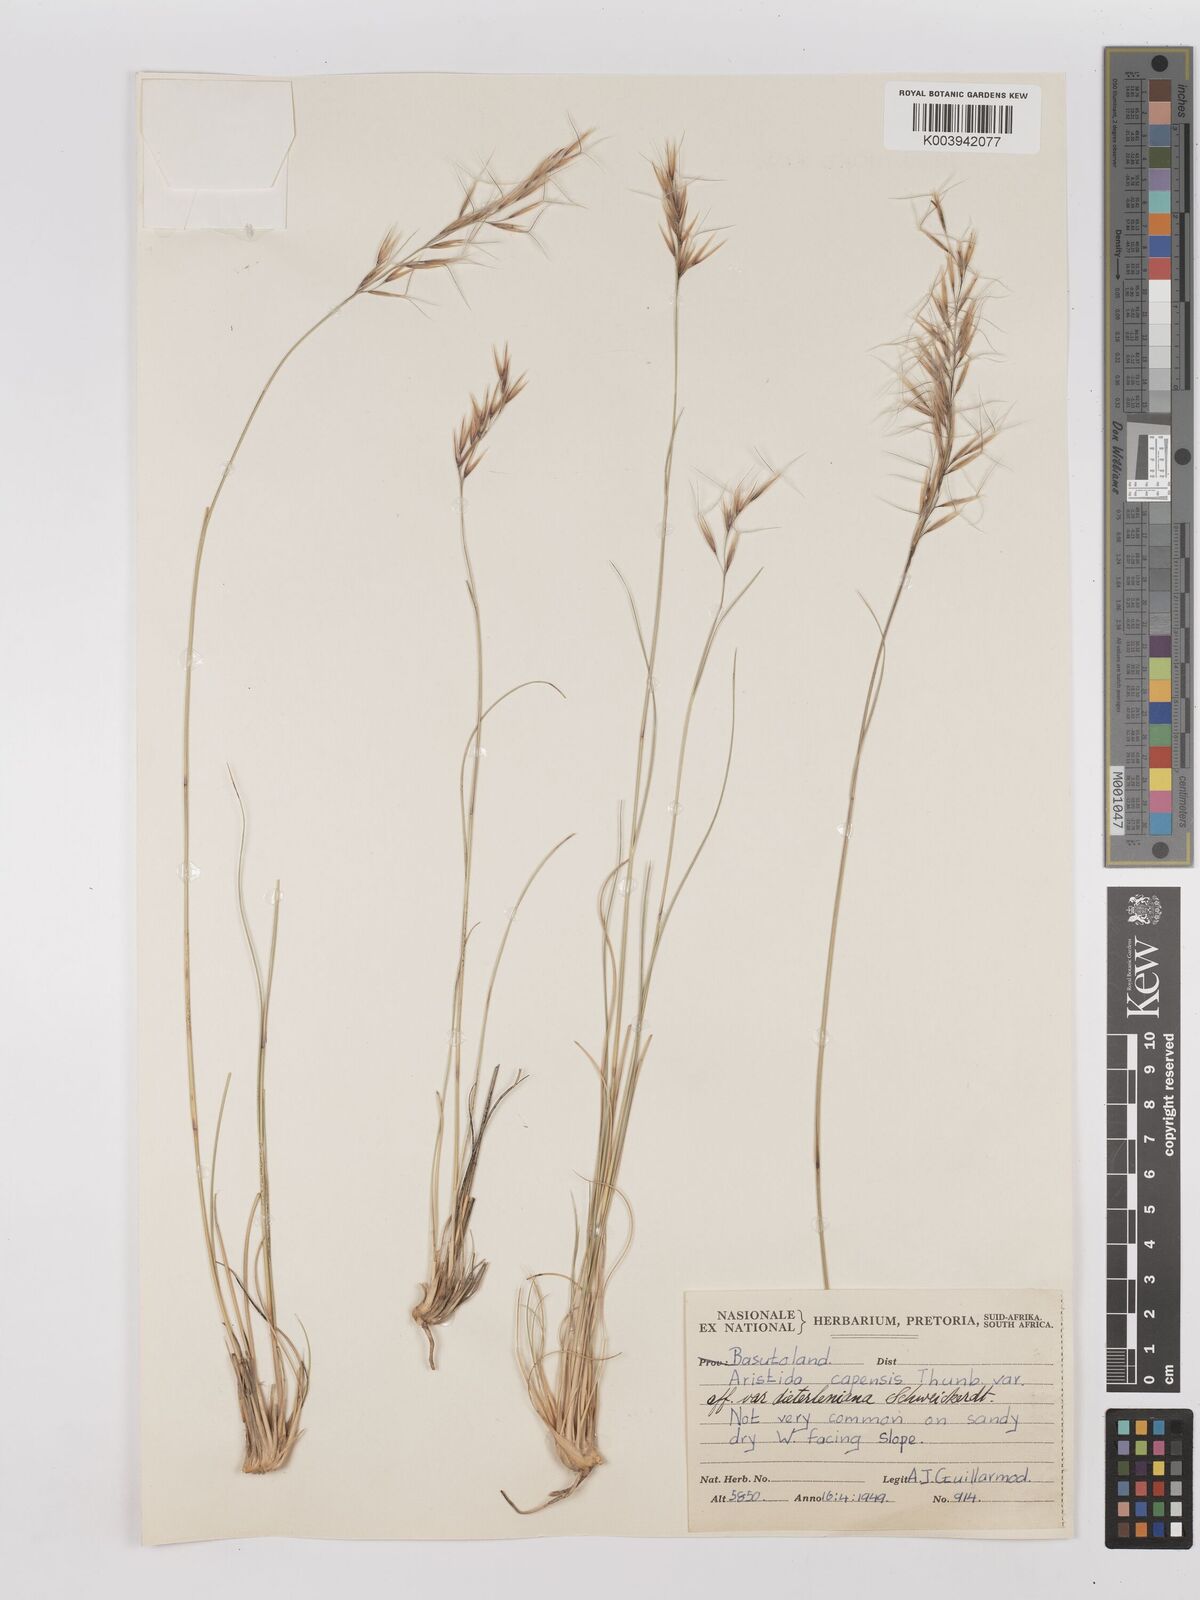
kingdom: Plantae
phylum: Tracheophyta
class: Liliopsida
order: Poales
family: Poaceae
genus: Stipagrostis
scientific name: Stipagrostis zeyheri
